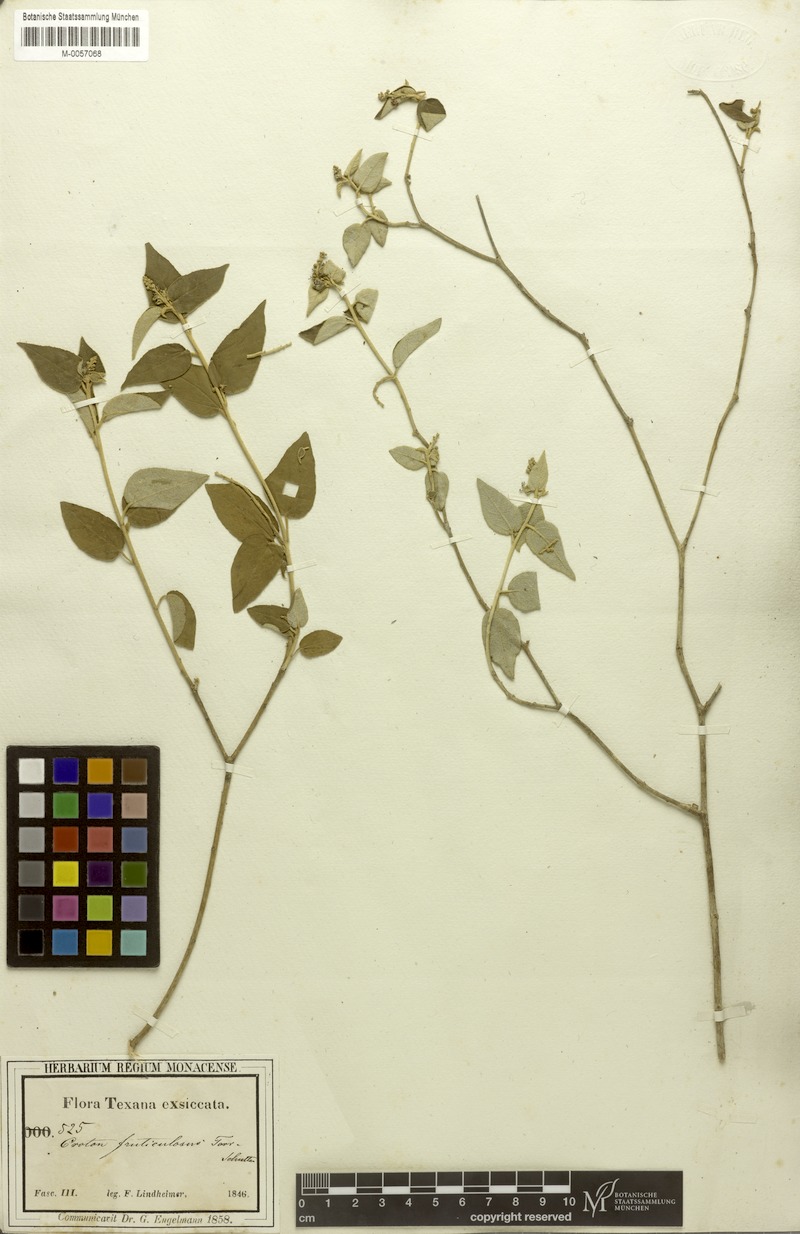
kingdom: Plantae
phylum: Tracheophyta
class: Magnoliopsida
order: Malpighiales
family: Euphorbiaceae
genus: Croton
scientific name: Croton fruticulosus
